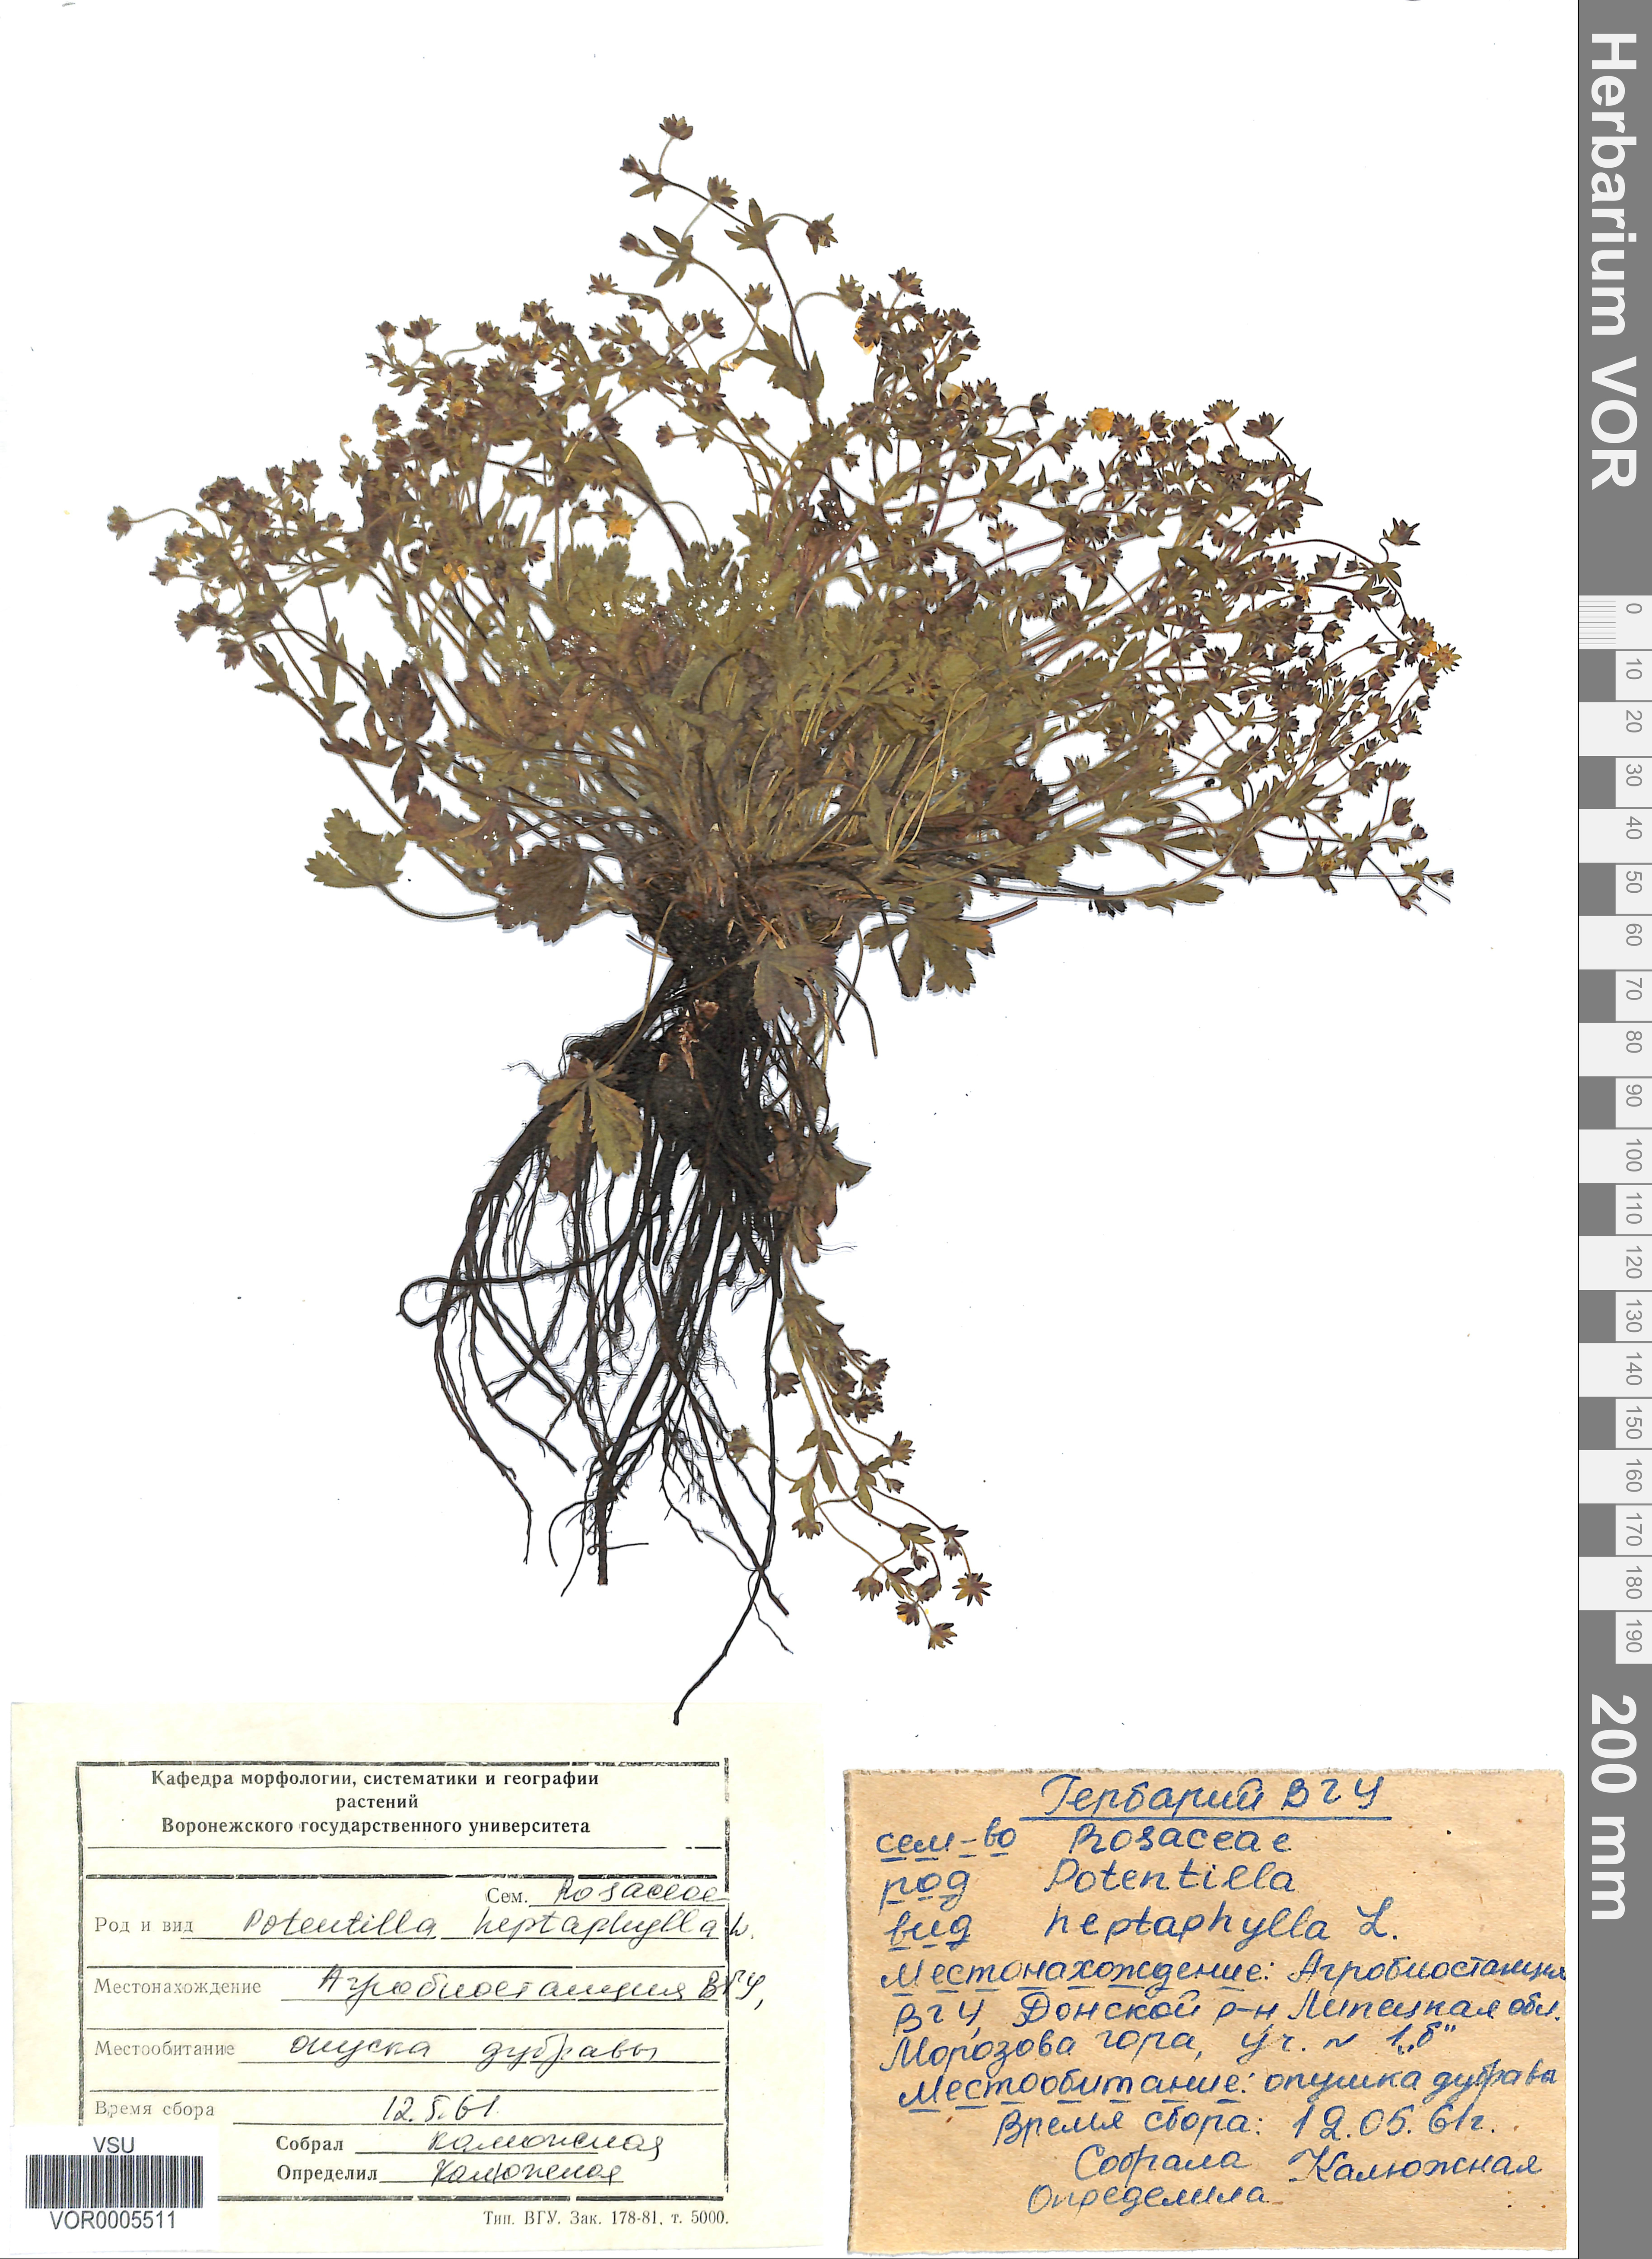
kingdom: Plantae
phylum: Tracheophyta
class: Magnoliopsida
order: Rosales
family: Rosaceae
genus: Potentilla
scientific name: Potentilla heptaphylla
